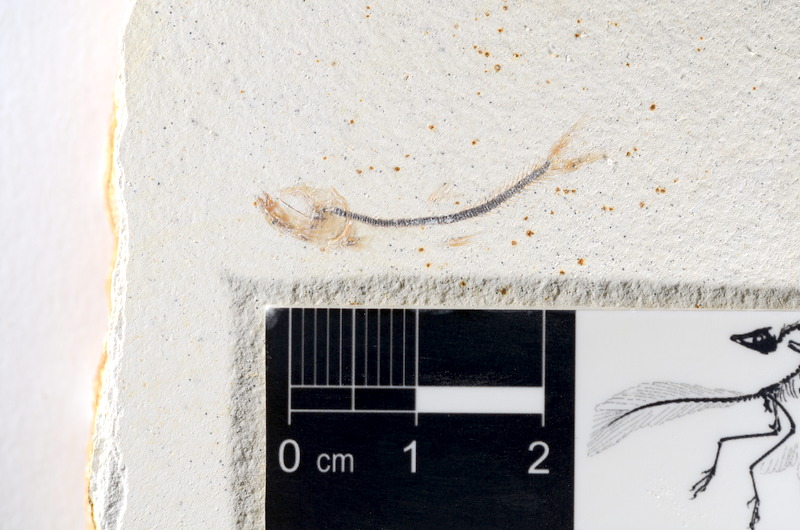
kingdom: Animalia
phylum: Chordata
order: Salmoniformes
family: Orthogonikleithridae
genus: Orthogonikleithrus
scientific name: Orthogonikleithrus hoelli
